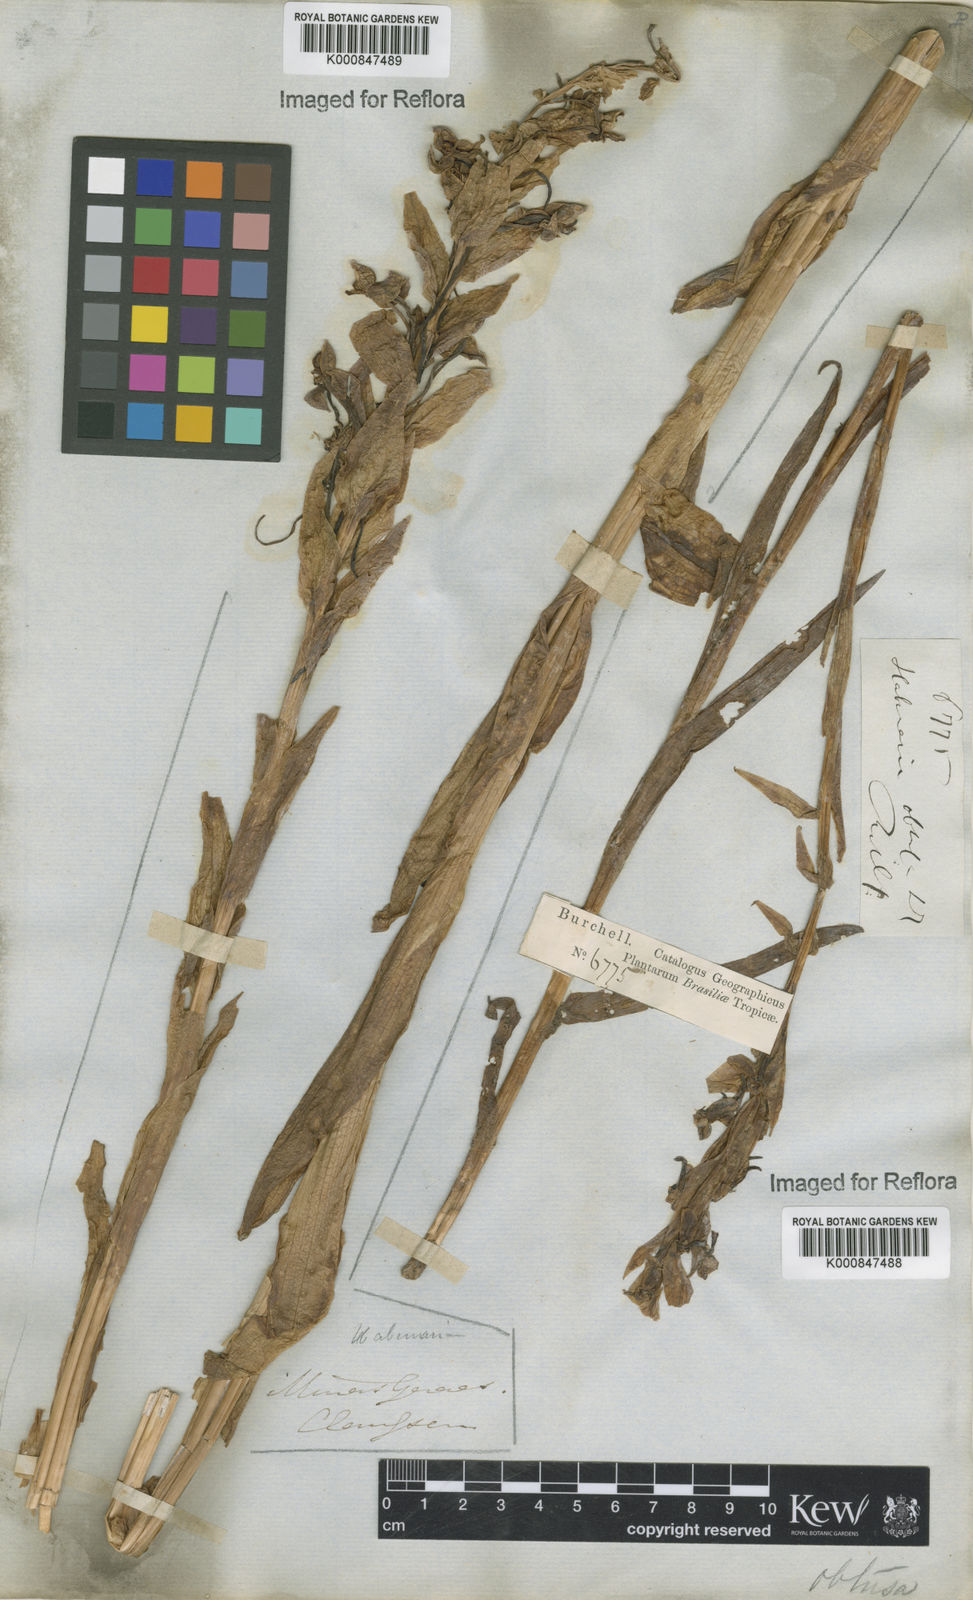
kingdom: Plantae
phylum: Tracheophyta
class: Liliopsida
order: Asparagales
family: Orchidaceae
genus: Habenaria
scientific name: Habenaria obtusa
